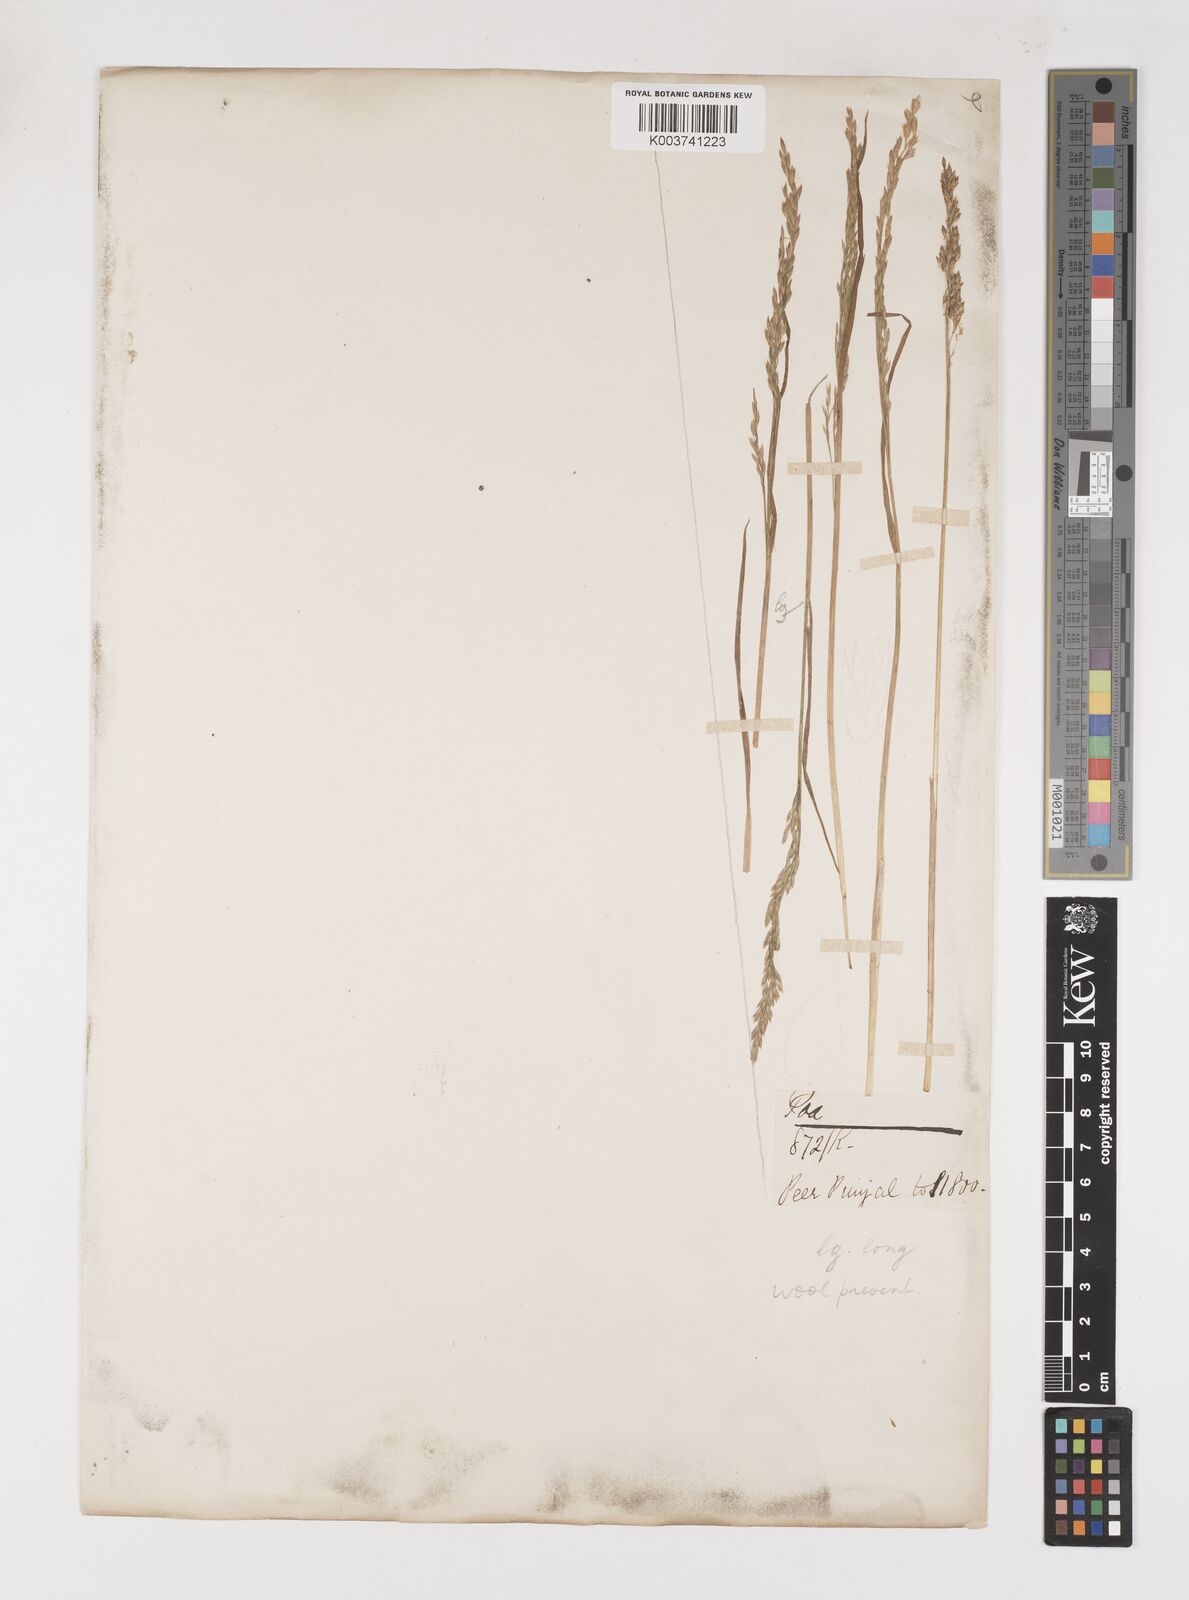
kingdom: Plantae
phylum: Tracheophyta
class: Liliopsida
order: Poales
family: Poaceae
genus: Poa
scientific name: Poa araratica
